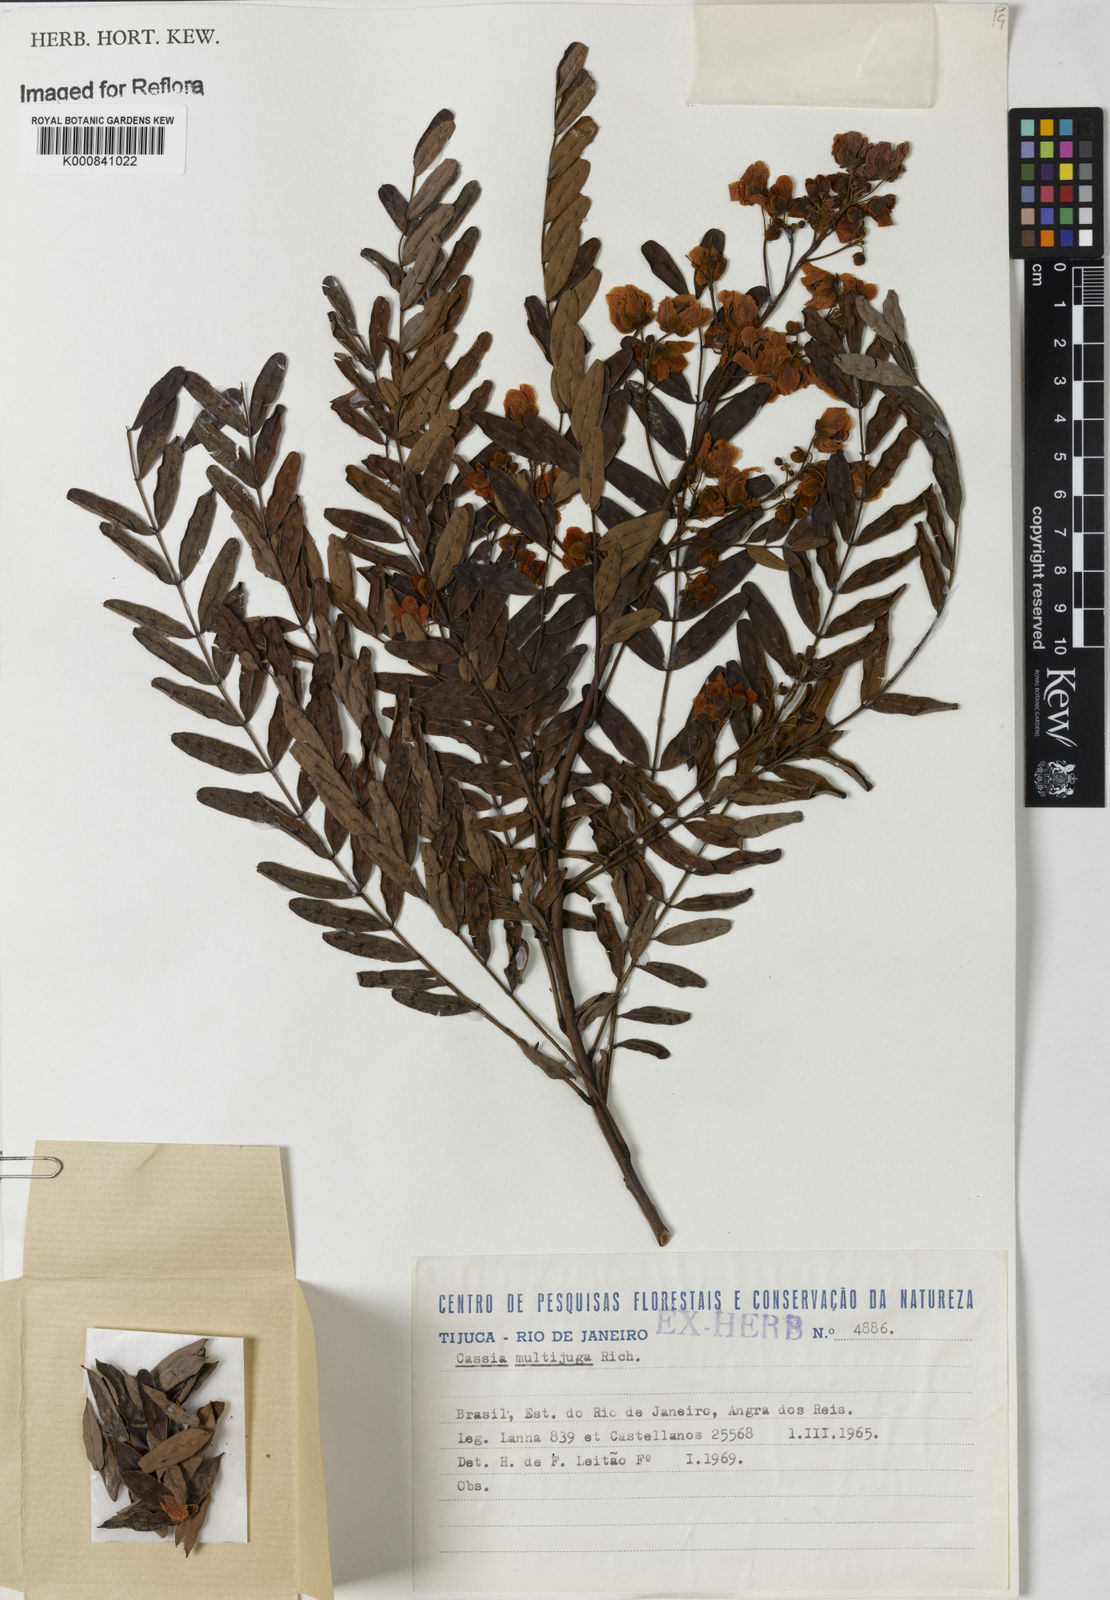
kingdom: Plantae
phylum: Tracheophyta
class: Magnoliopsida
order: Fabales
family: Fabaceae
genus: Senna
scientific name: Senna multijuga
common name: False sicklepod
